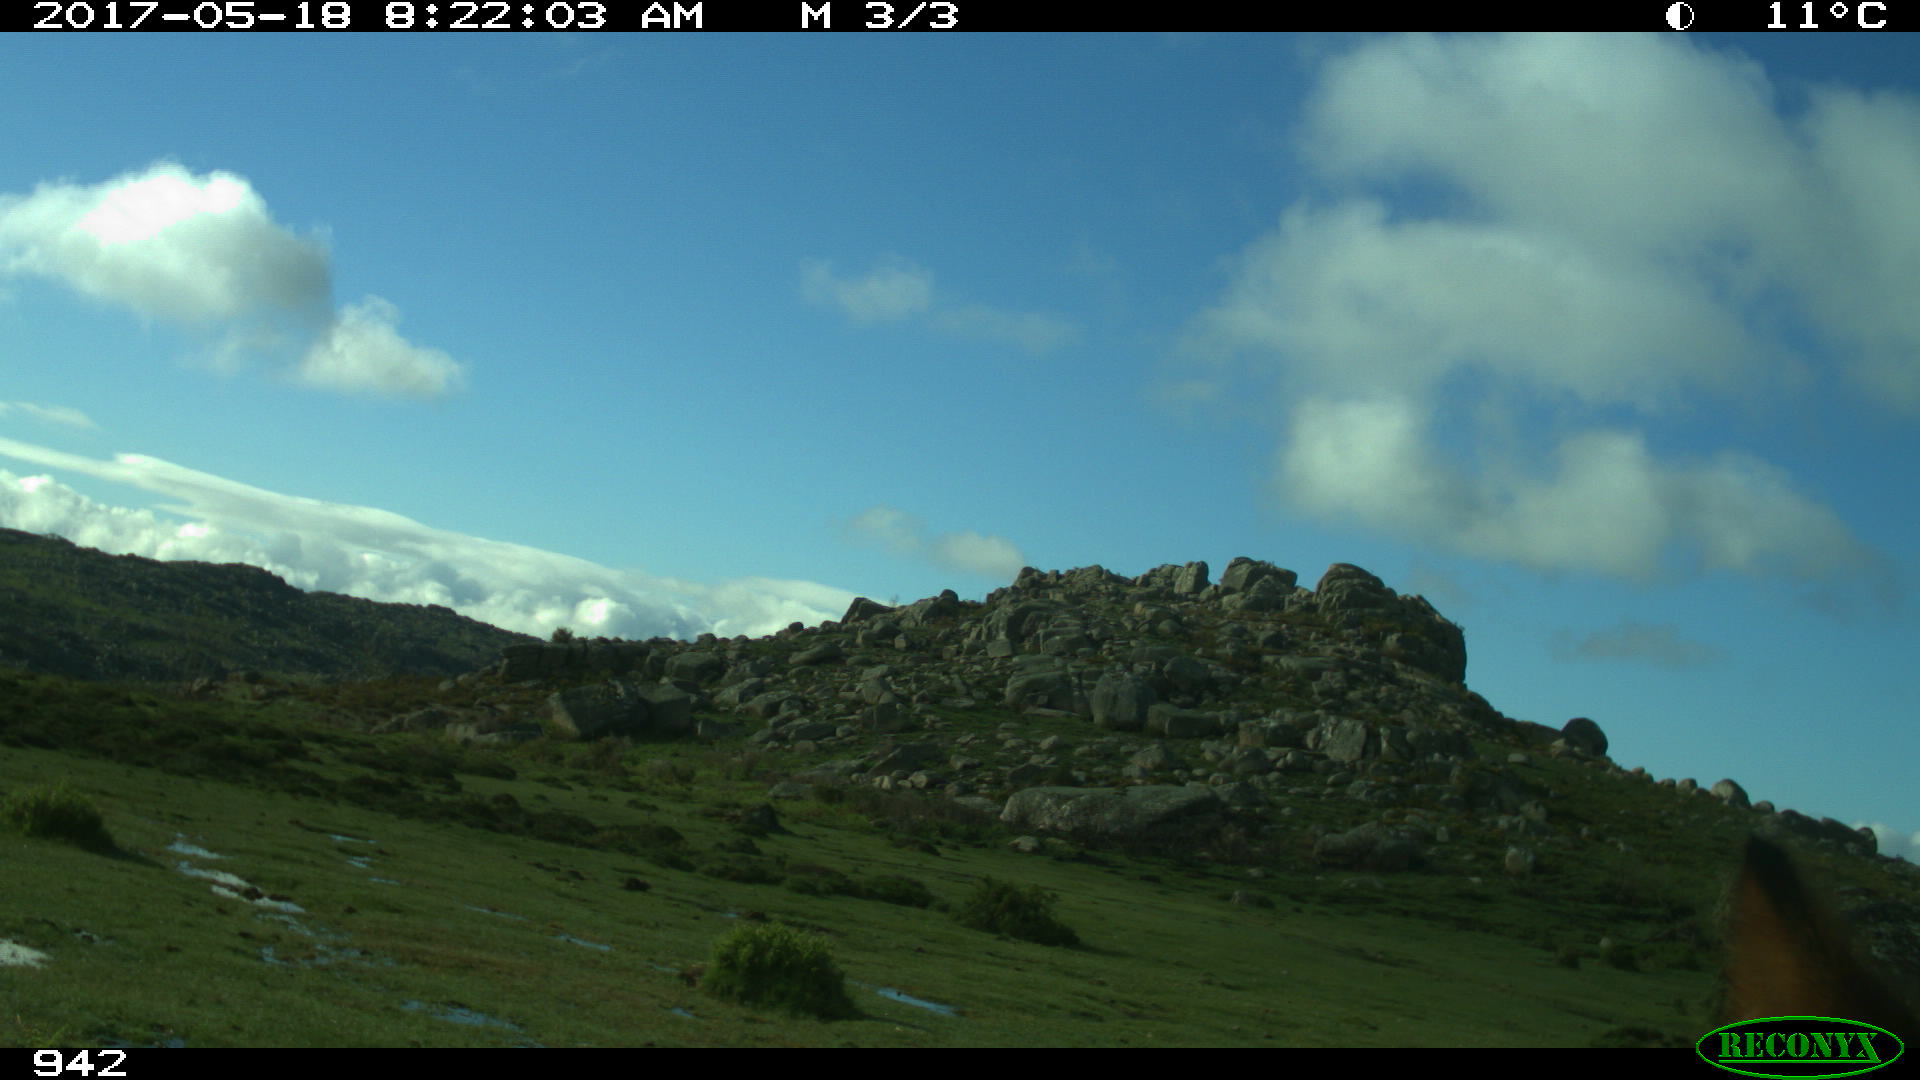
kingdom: Animalia
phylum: Chordata
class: Mammalia
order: Perissodactyla
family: Equidae
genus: Equus
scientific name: Equus caballus
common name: Horse
